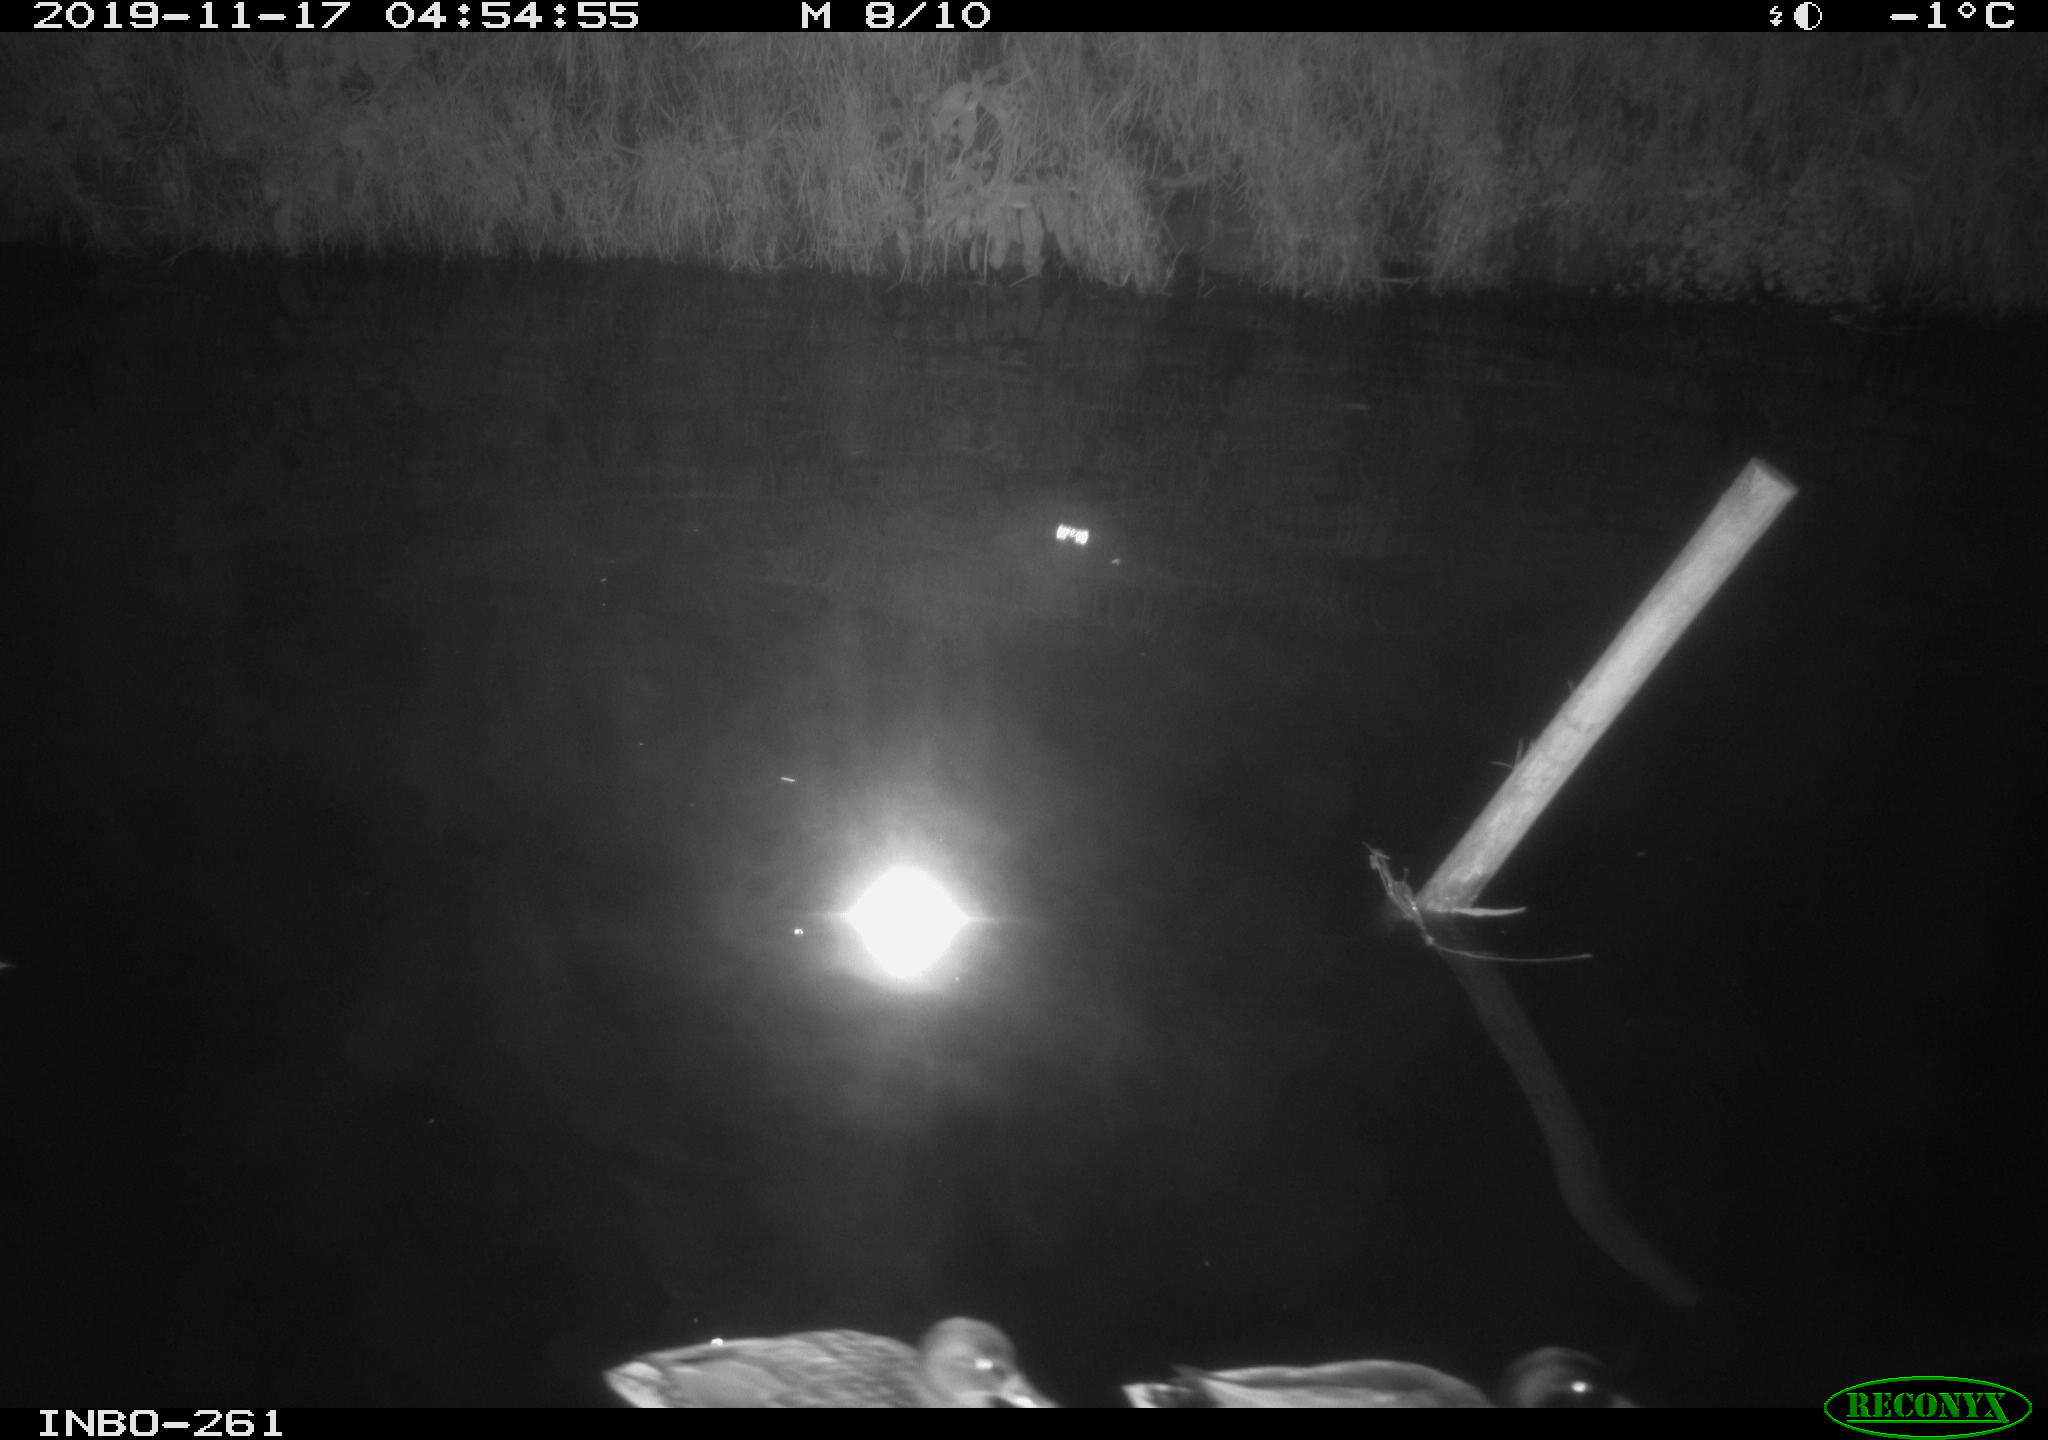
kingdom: Animalia
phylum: Chordata
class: Aves
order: Anseriformes
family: Anatidae
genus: Anas
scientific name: Anas platyrhynchos
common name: Mallard
